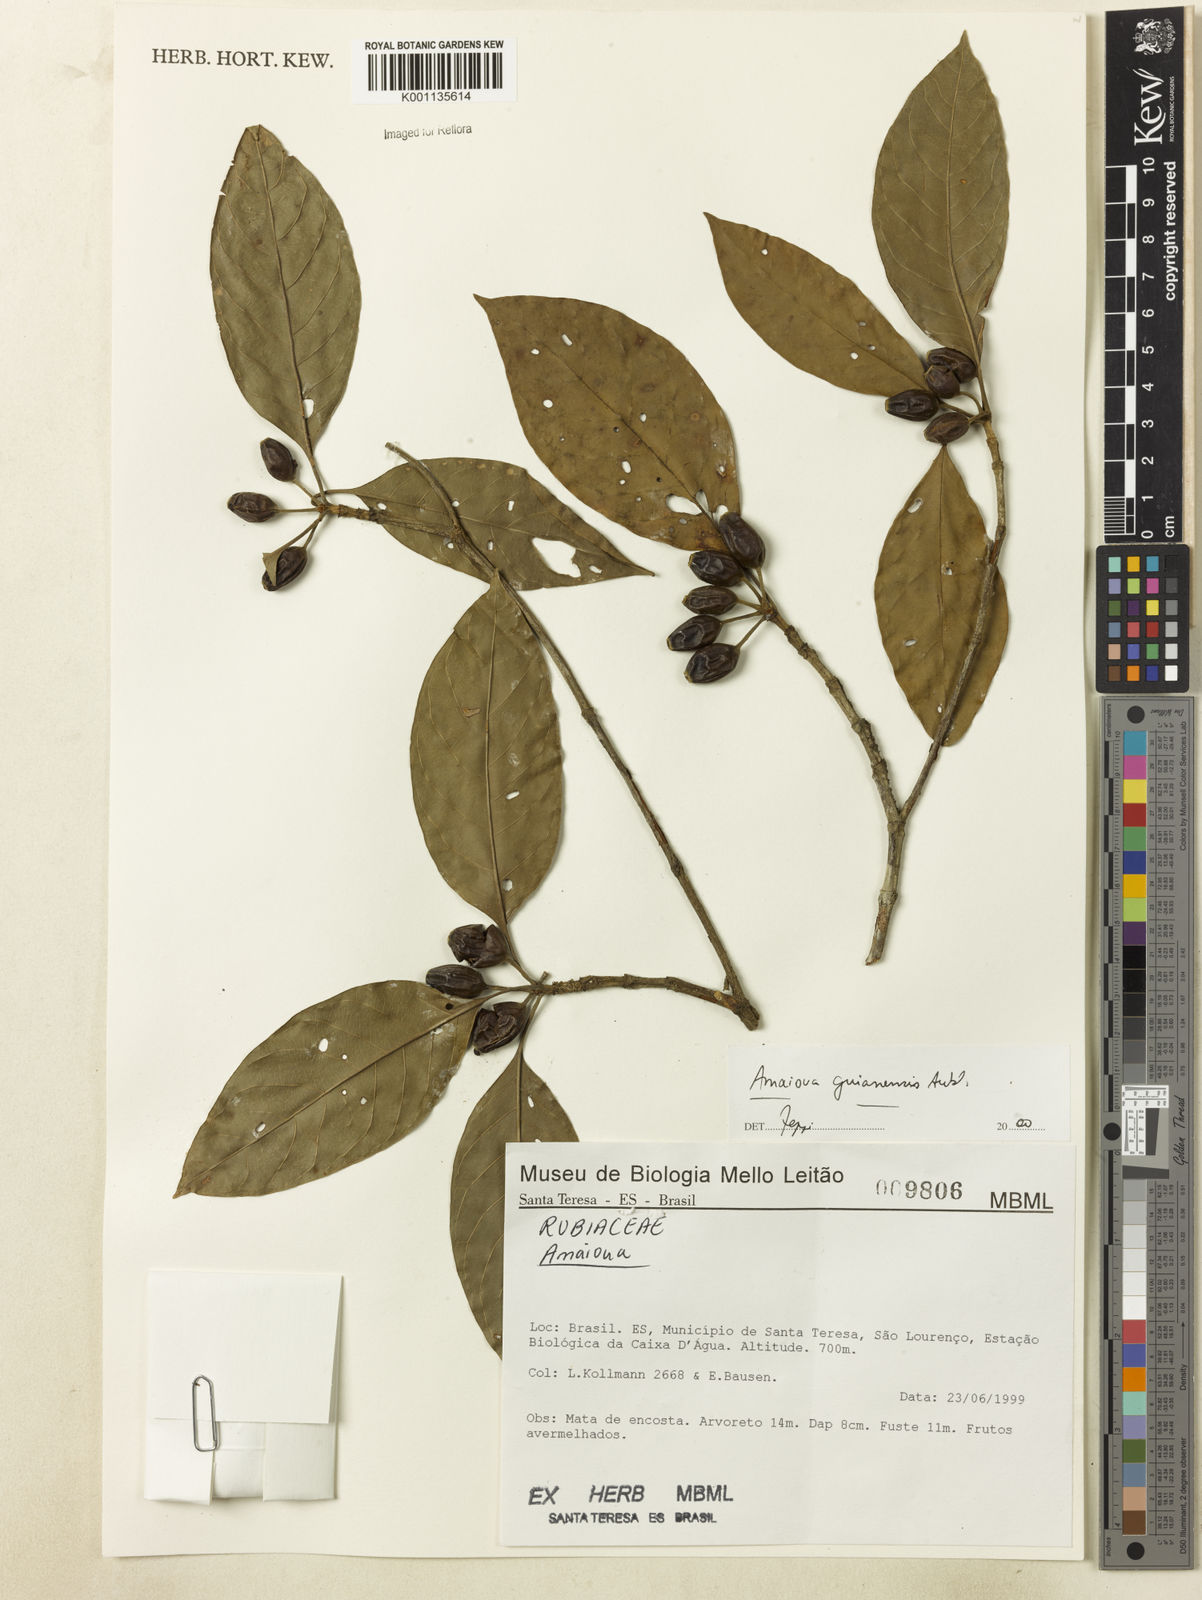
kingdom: Plantae
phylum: Tracheophyta
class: Magnoliopsida
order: Gentianales
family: Rubiaceae
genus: Amaioua
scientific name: Amaioua intermedia
